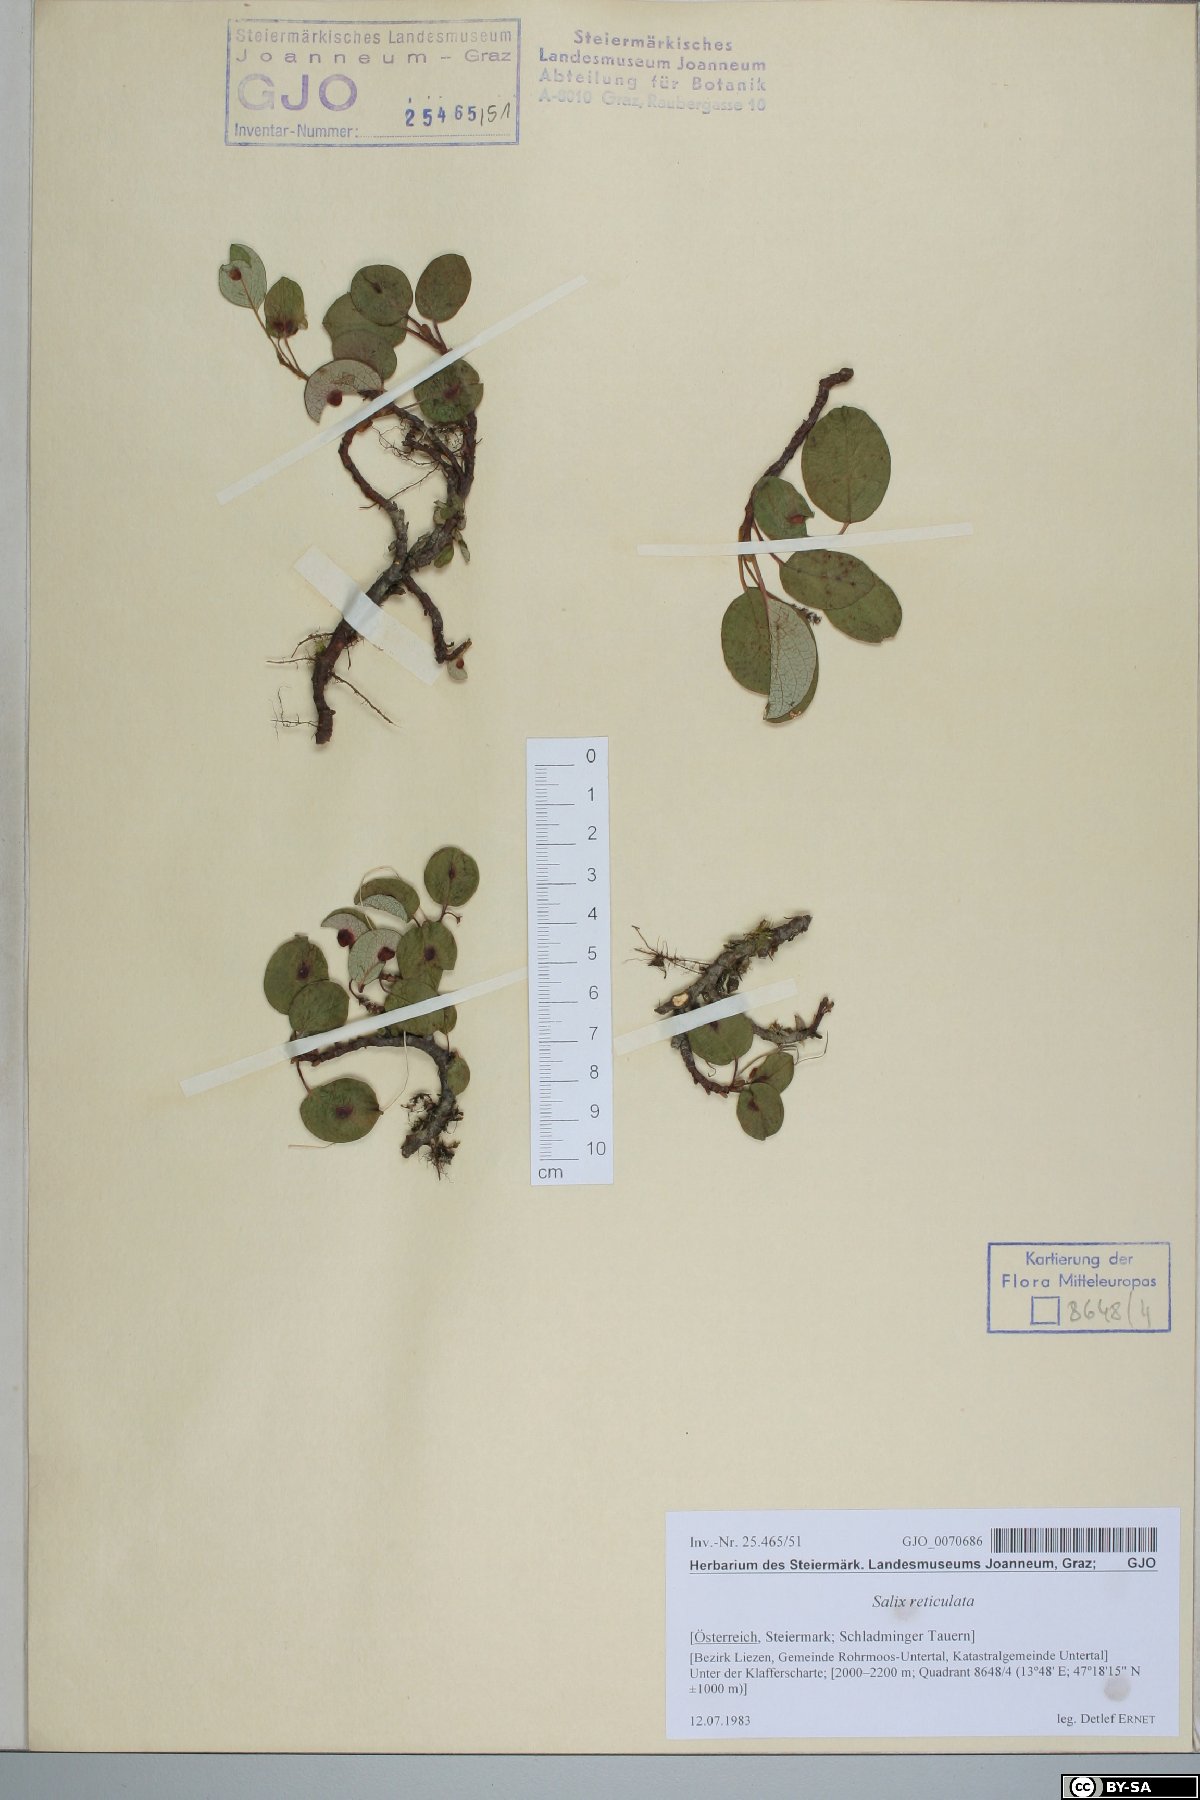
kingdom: Plantae
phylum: Tracheophyta
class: Magnoliopsida
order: Malpighiales
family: Salicaceae
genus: Salix
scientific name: Salix reticulata
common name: Net-leaved willow
